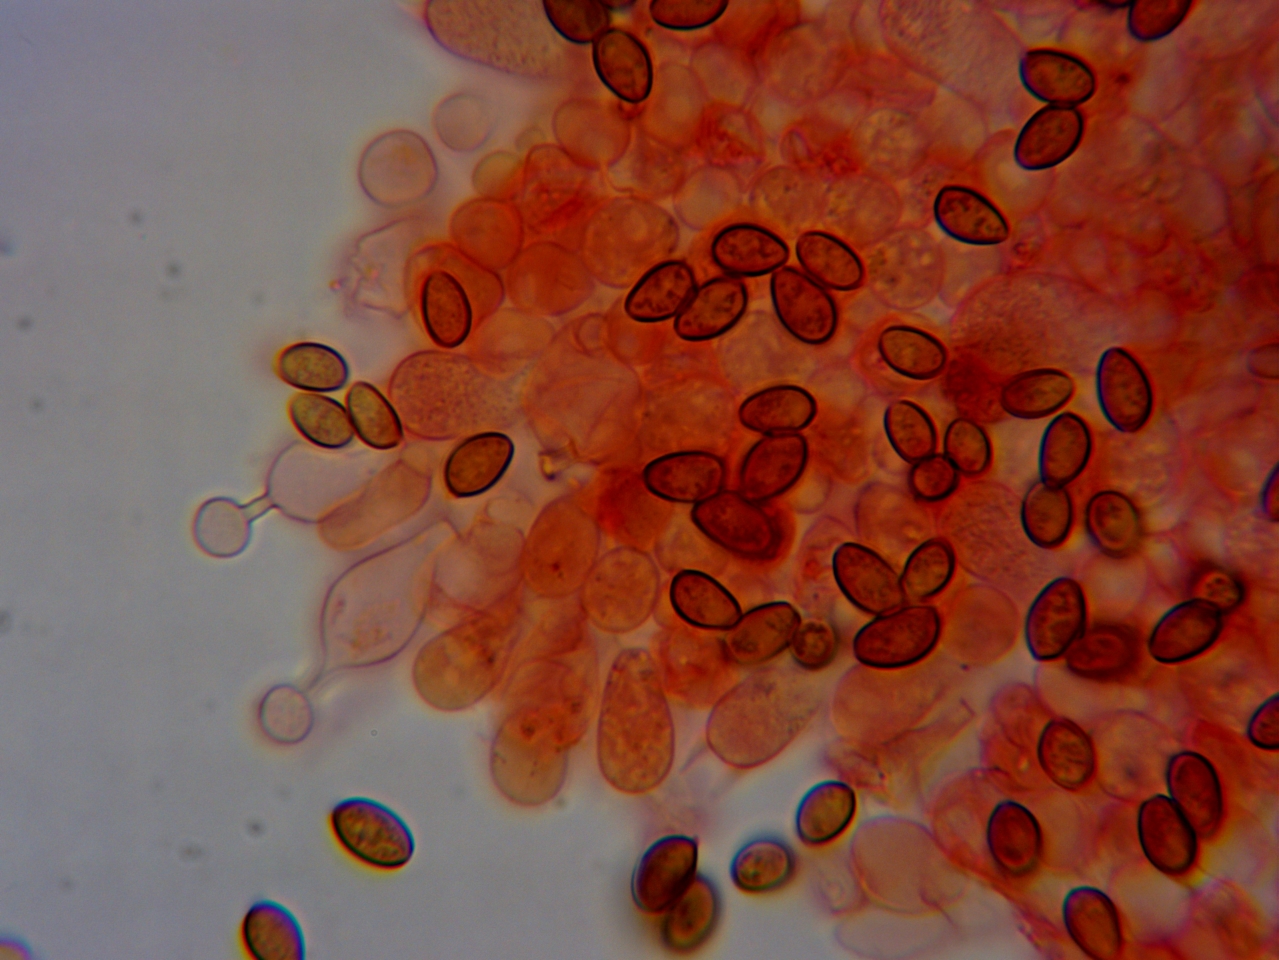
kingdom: Fungi
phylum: Basidiomycota
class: Agaricomycetes
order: Agaricales
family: Bolbitiaceae
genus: Conocybe
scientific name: Conocybe
